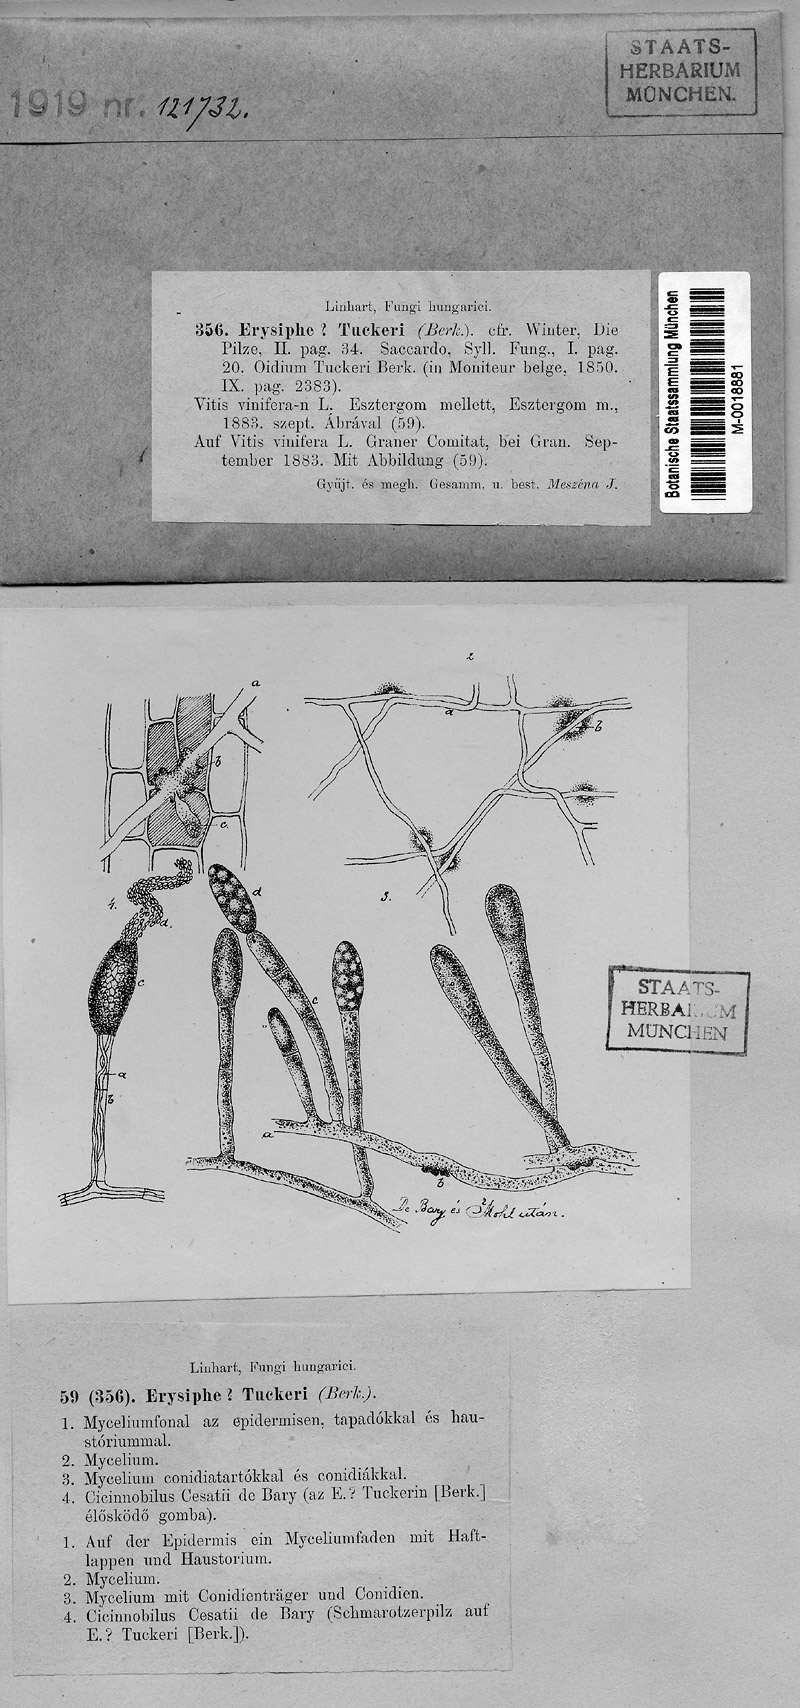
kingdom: Plantae
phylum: Tracheophyta
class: Magnoliopsida
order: Vitales
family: Vitaceae
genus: Vitis
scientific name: Vitis vinifera
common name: Grape-vine
